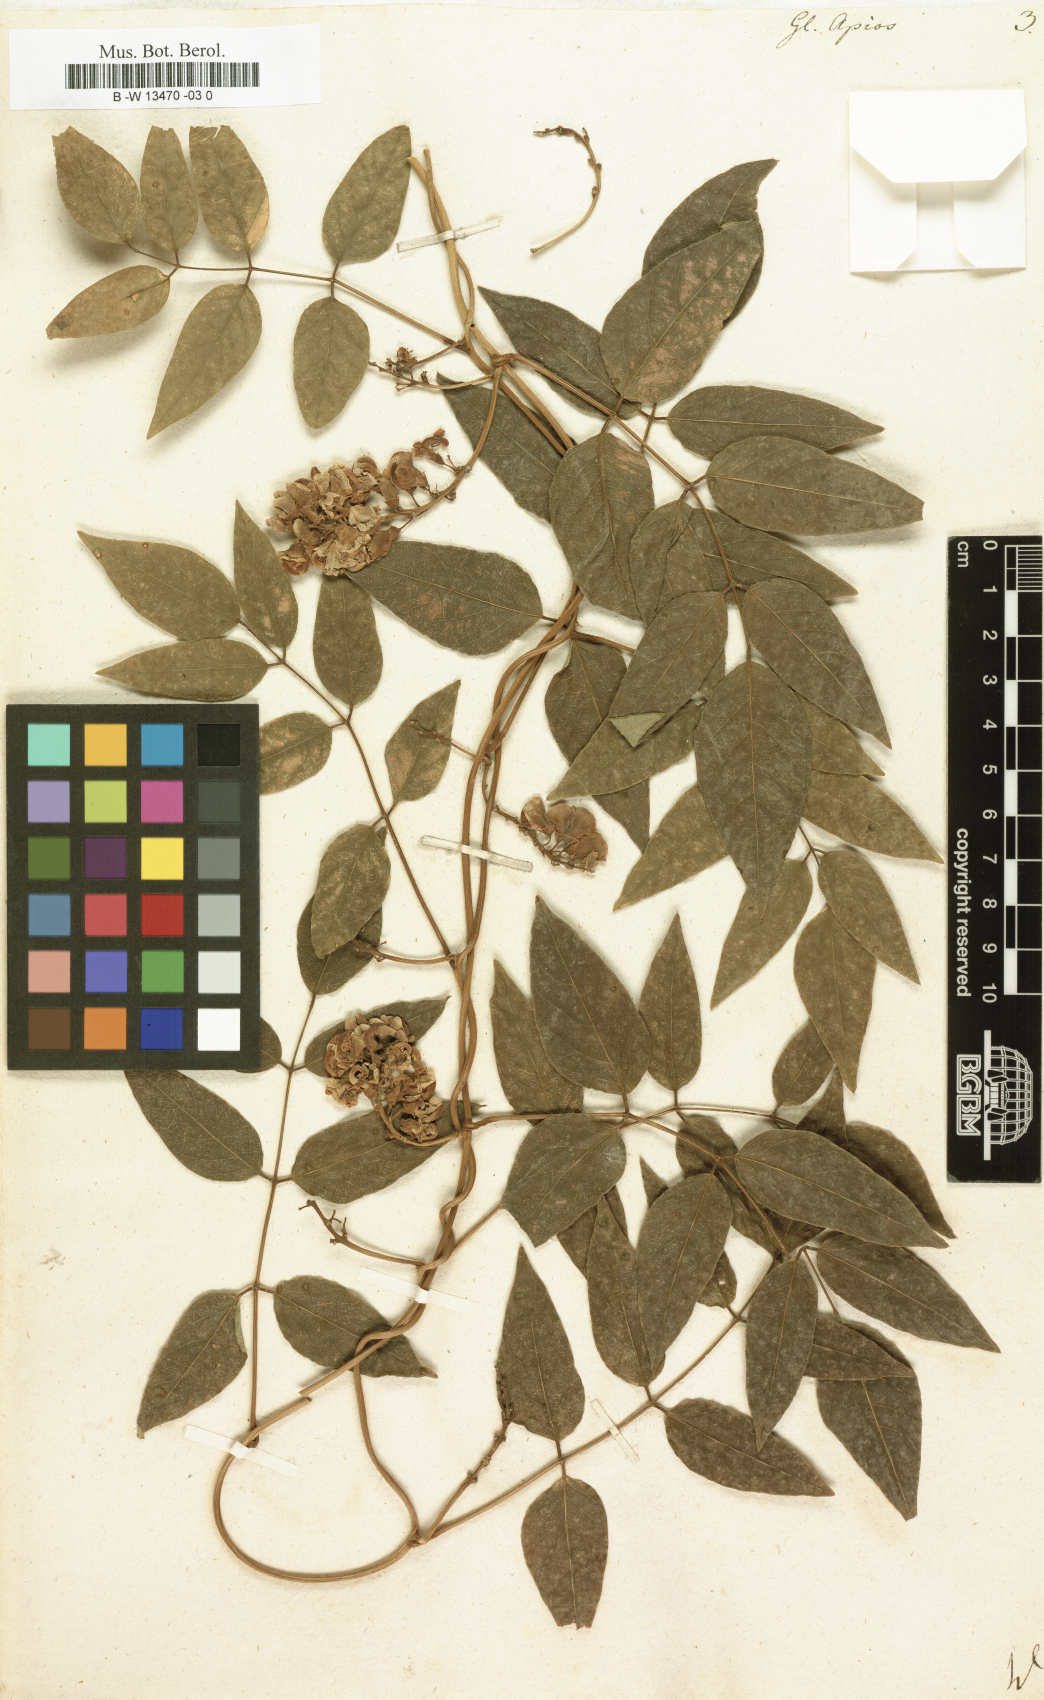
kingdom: Plantae
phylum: Tracheophyta
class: Magnoliopsida
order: Fabales
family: Fabaceae
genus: Apios
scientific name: Apios americana
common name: American potato-bean
